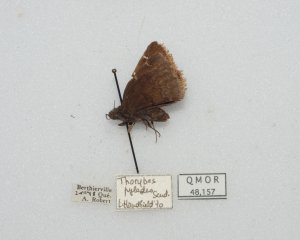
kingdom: Animalia
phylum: Arthropoda
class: Insecta
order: Lepidoptera
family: Hesperiidae
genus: Autochton
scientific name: Autochton
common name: Northern Cloudywing
